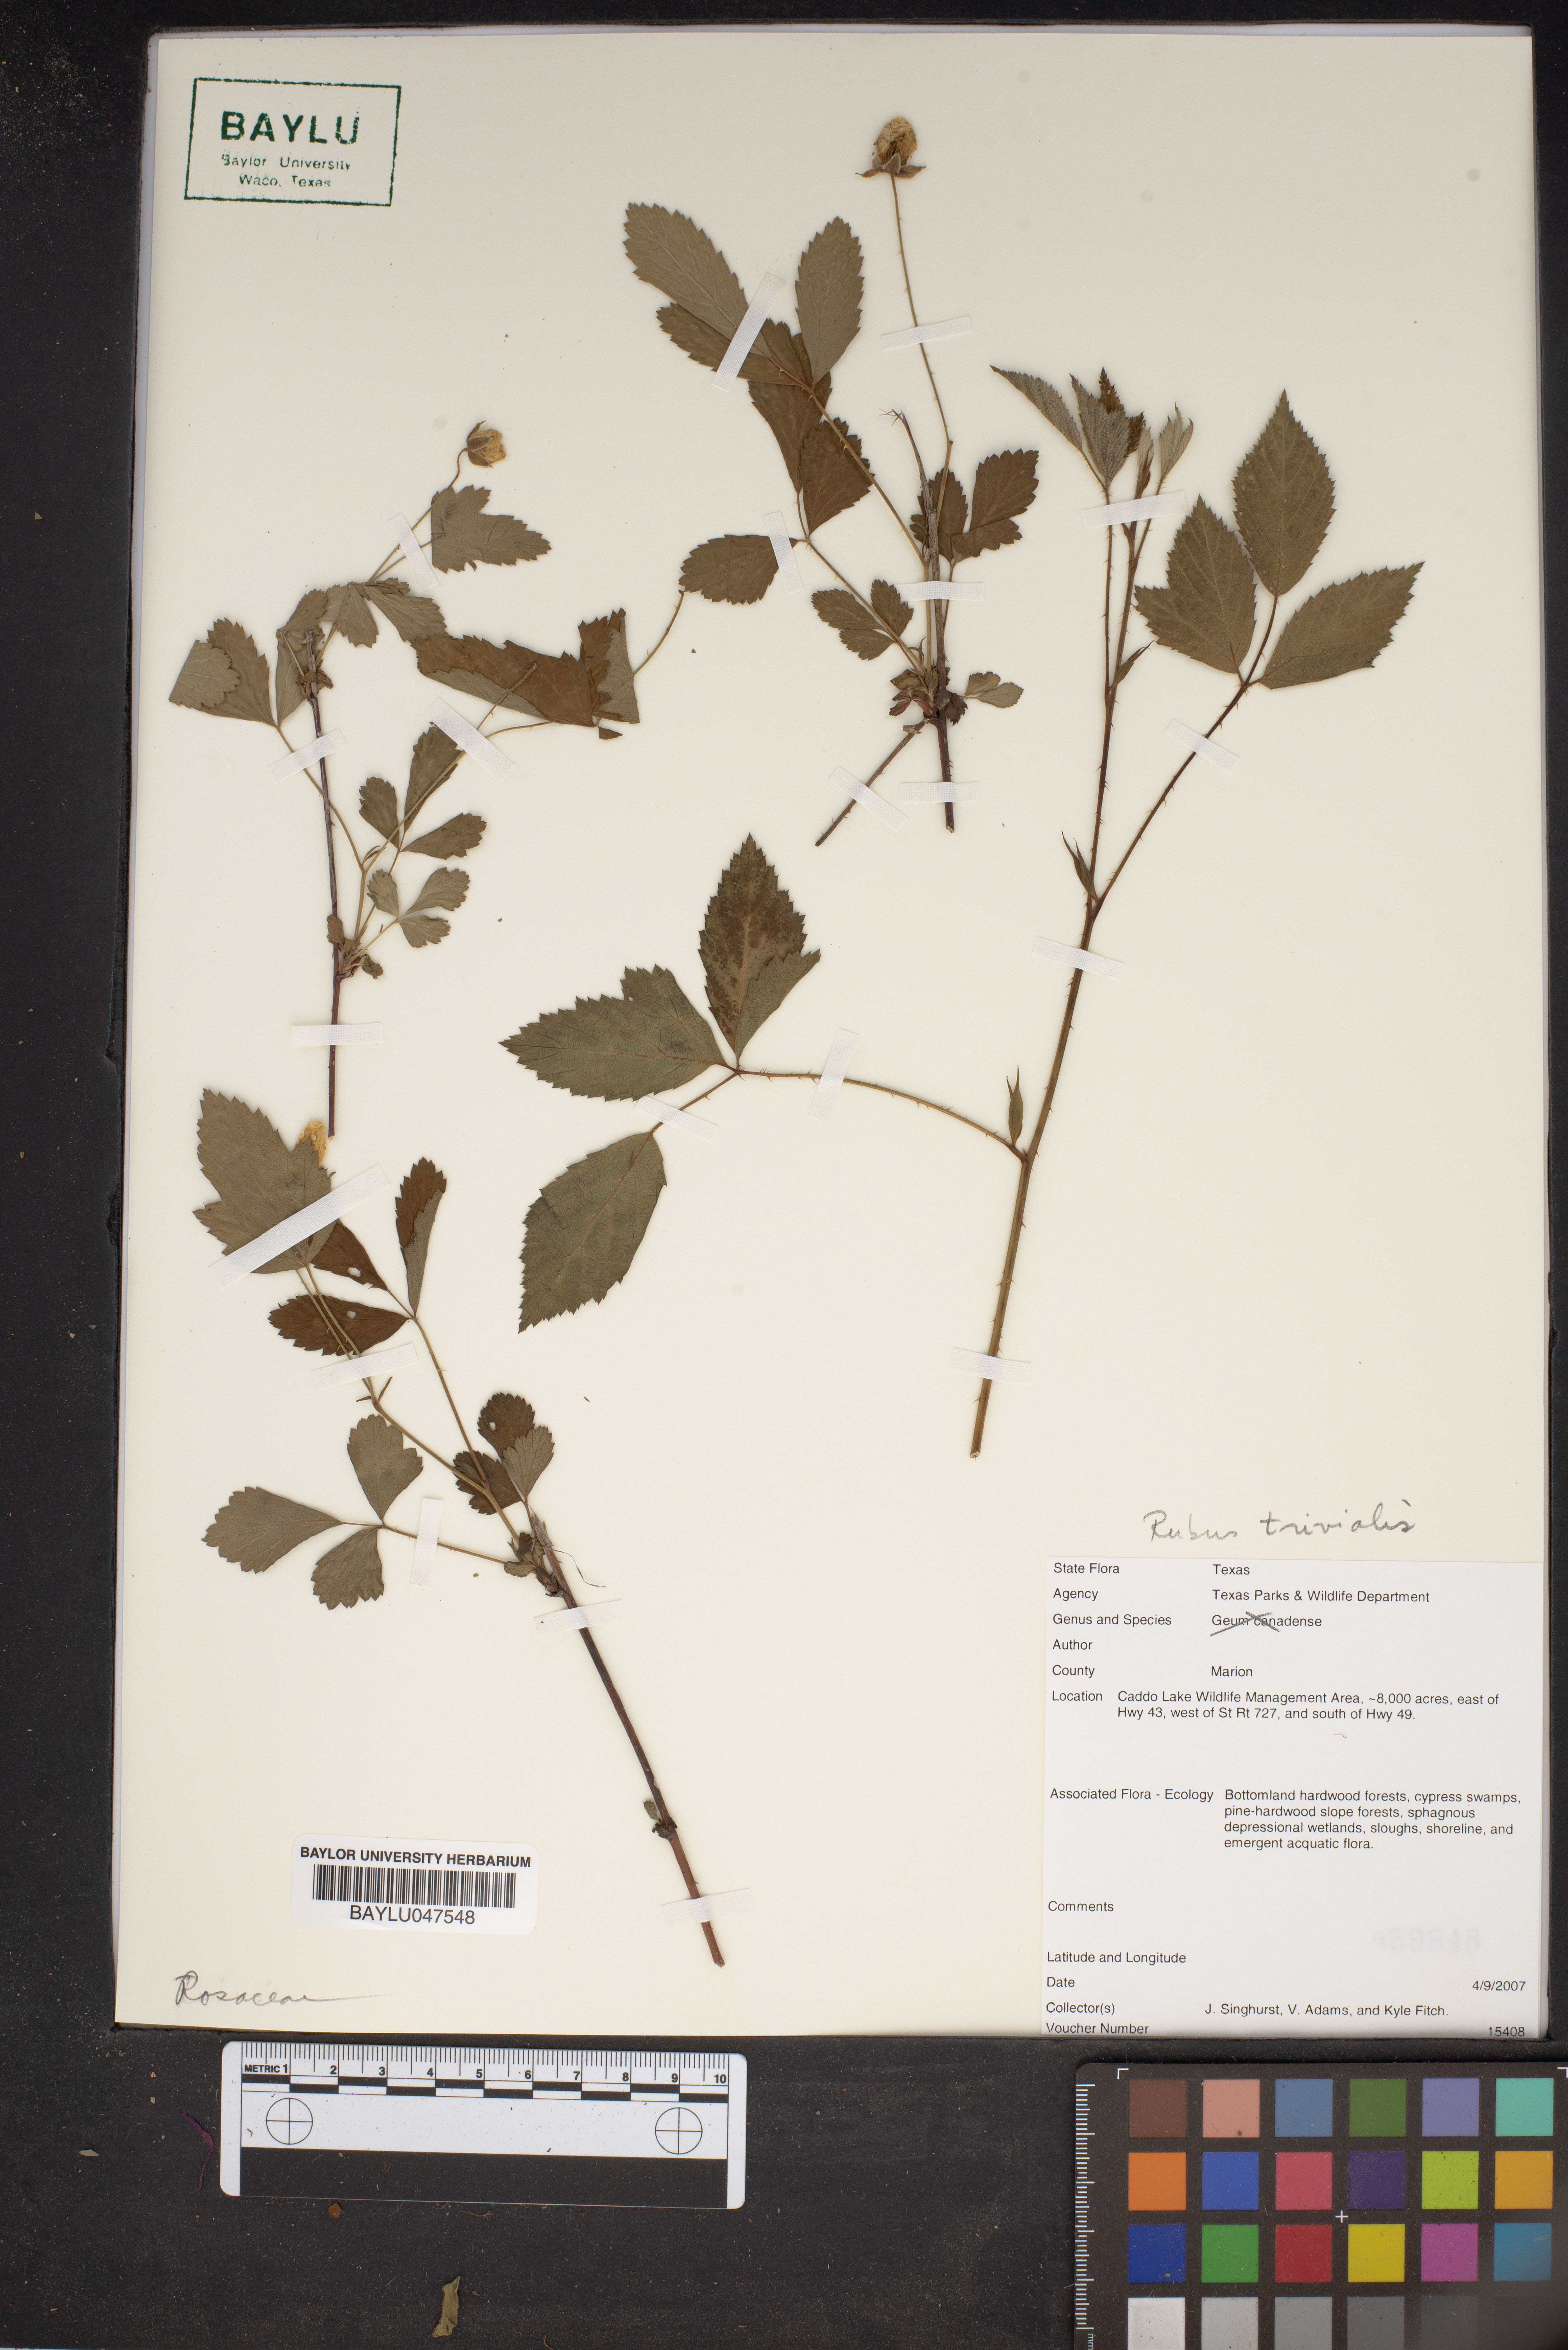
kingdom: Plantae
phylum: Tracheophyta
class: Magnoliopsida
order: Rosales
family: Rosaceae
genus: Rubus
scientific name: Rubus trivialis
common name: Southern dewberry
